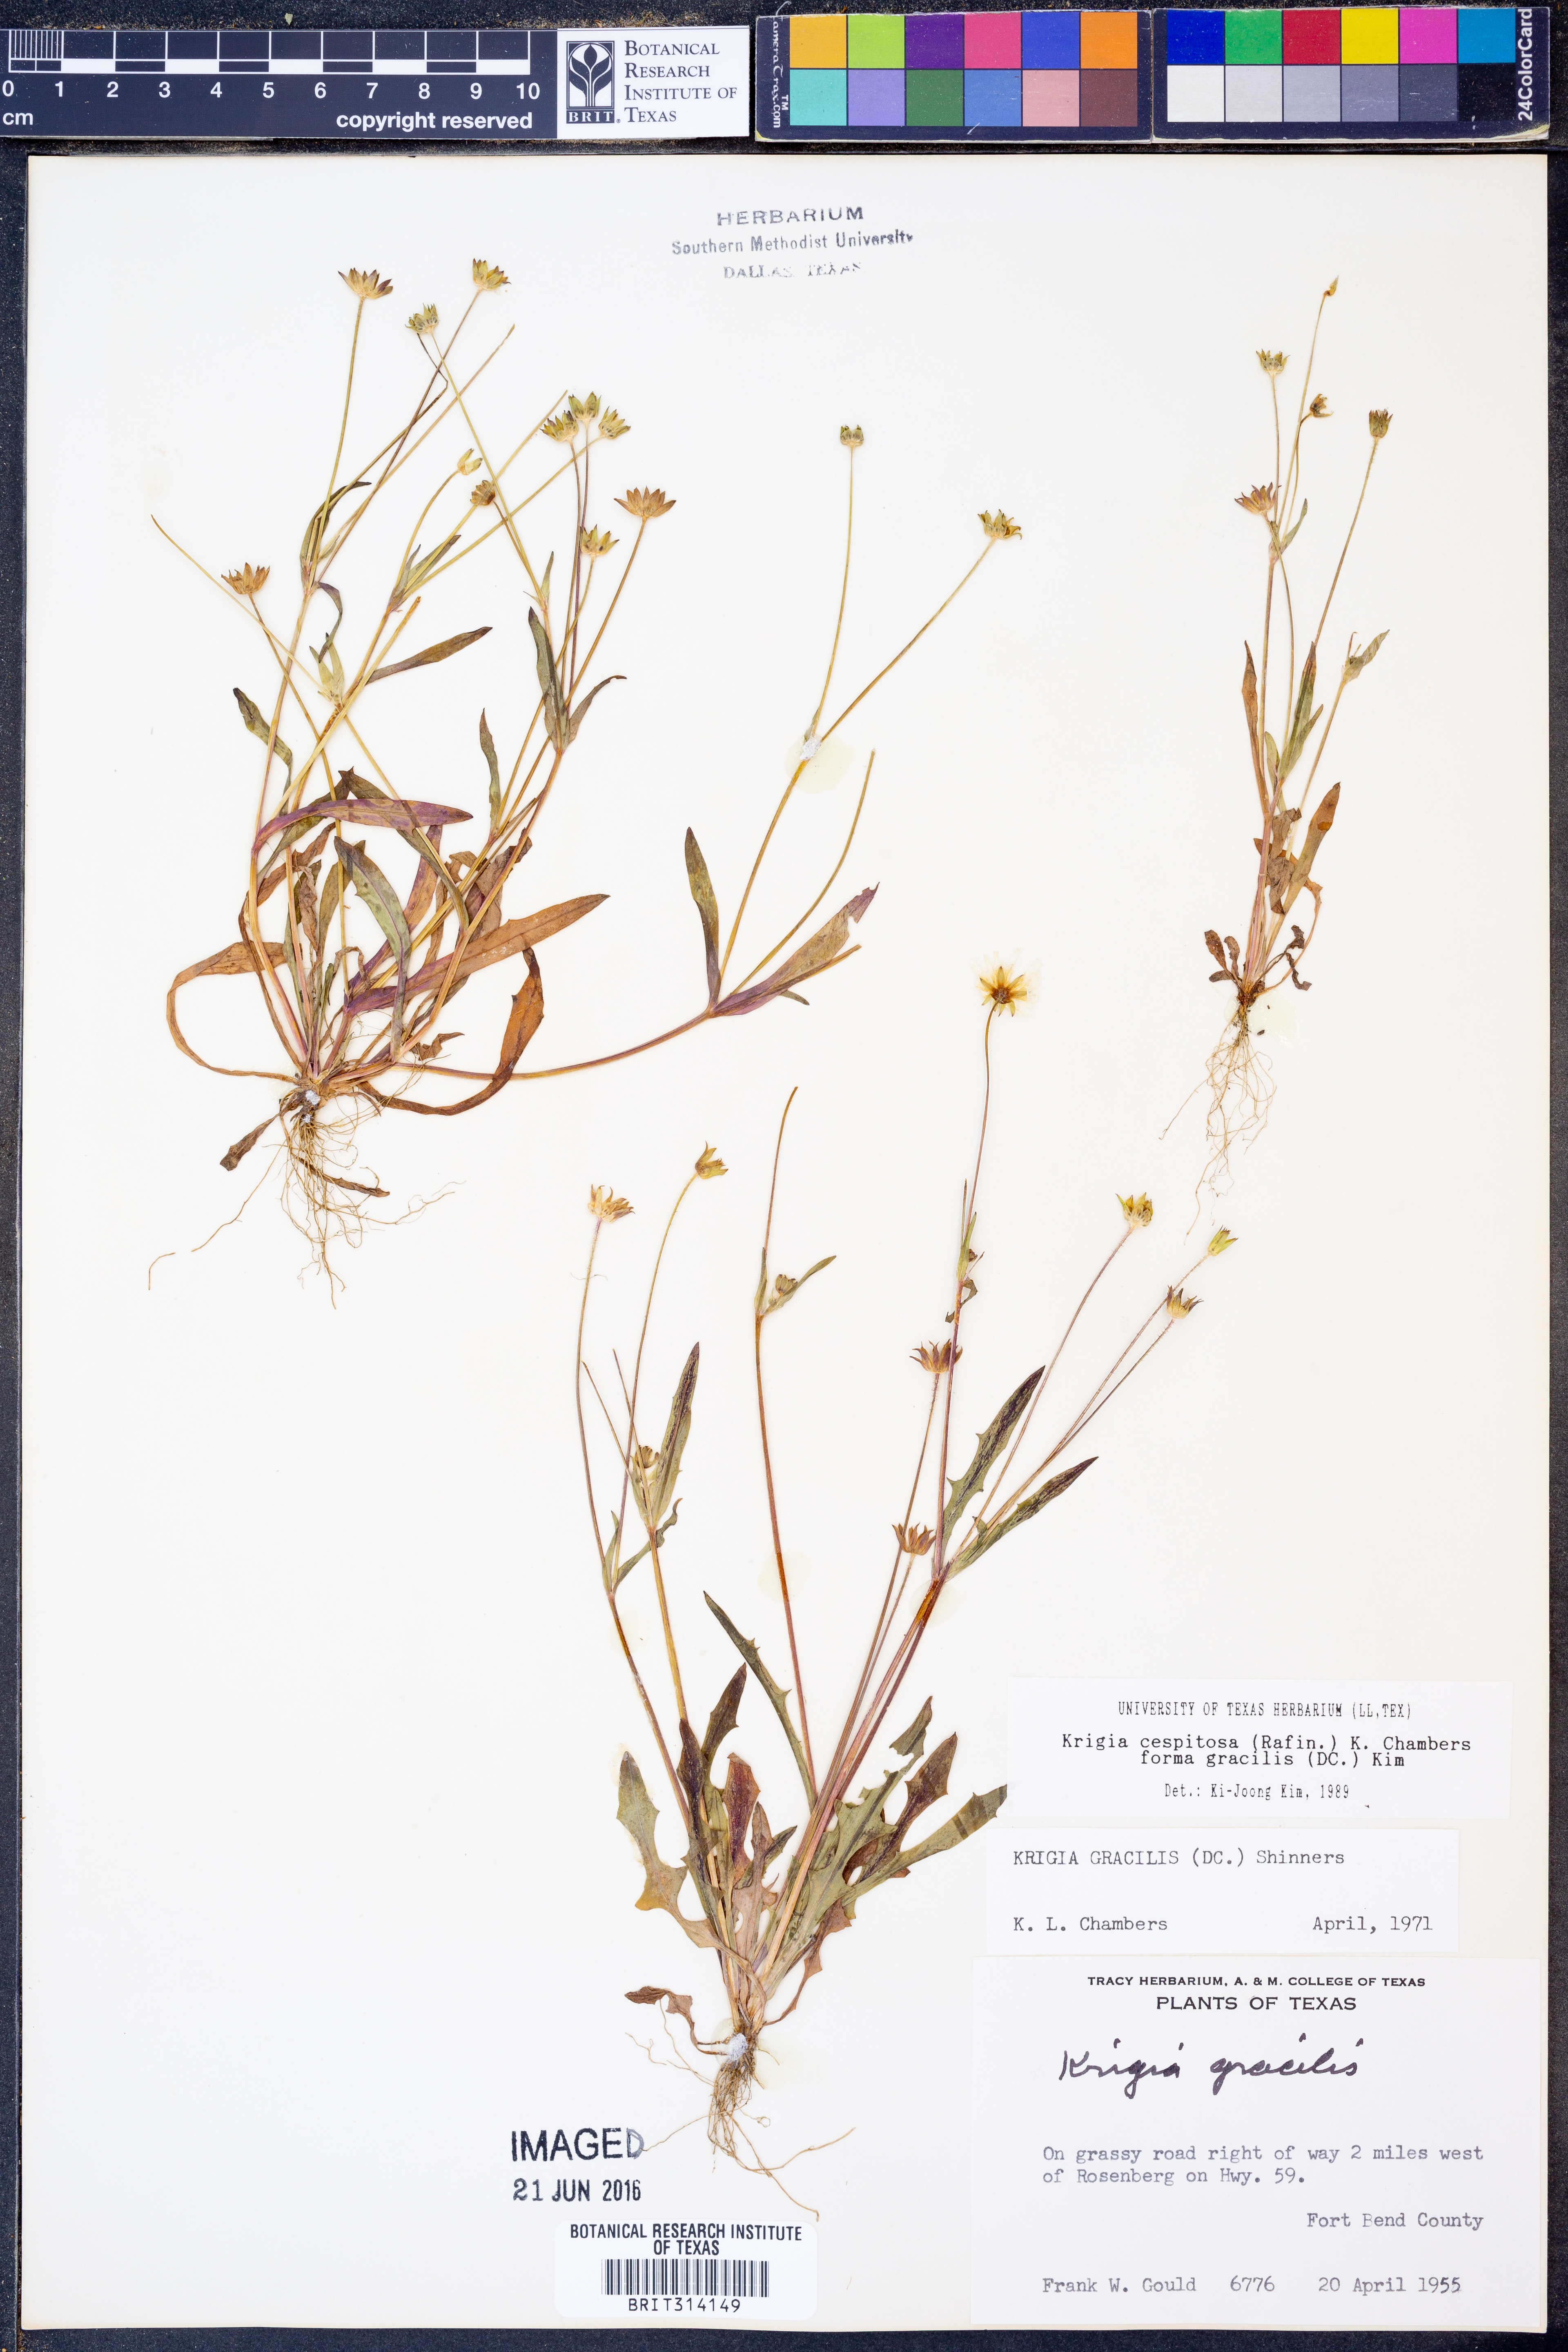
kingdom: Plantae
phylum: Tracheophyta
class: Magnoliopsida
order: Asterales
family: Asteraceae
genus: Krigia
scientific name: Krigia cespitosa
